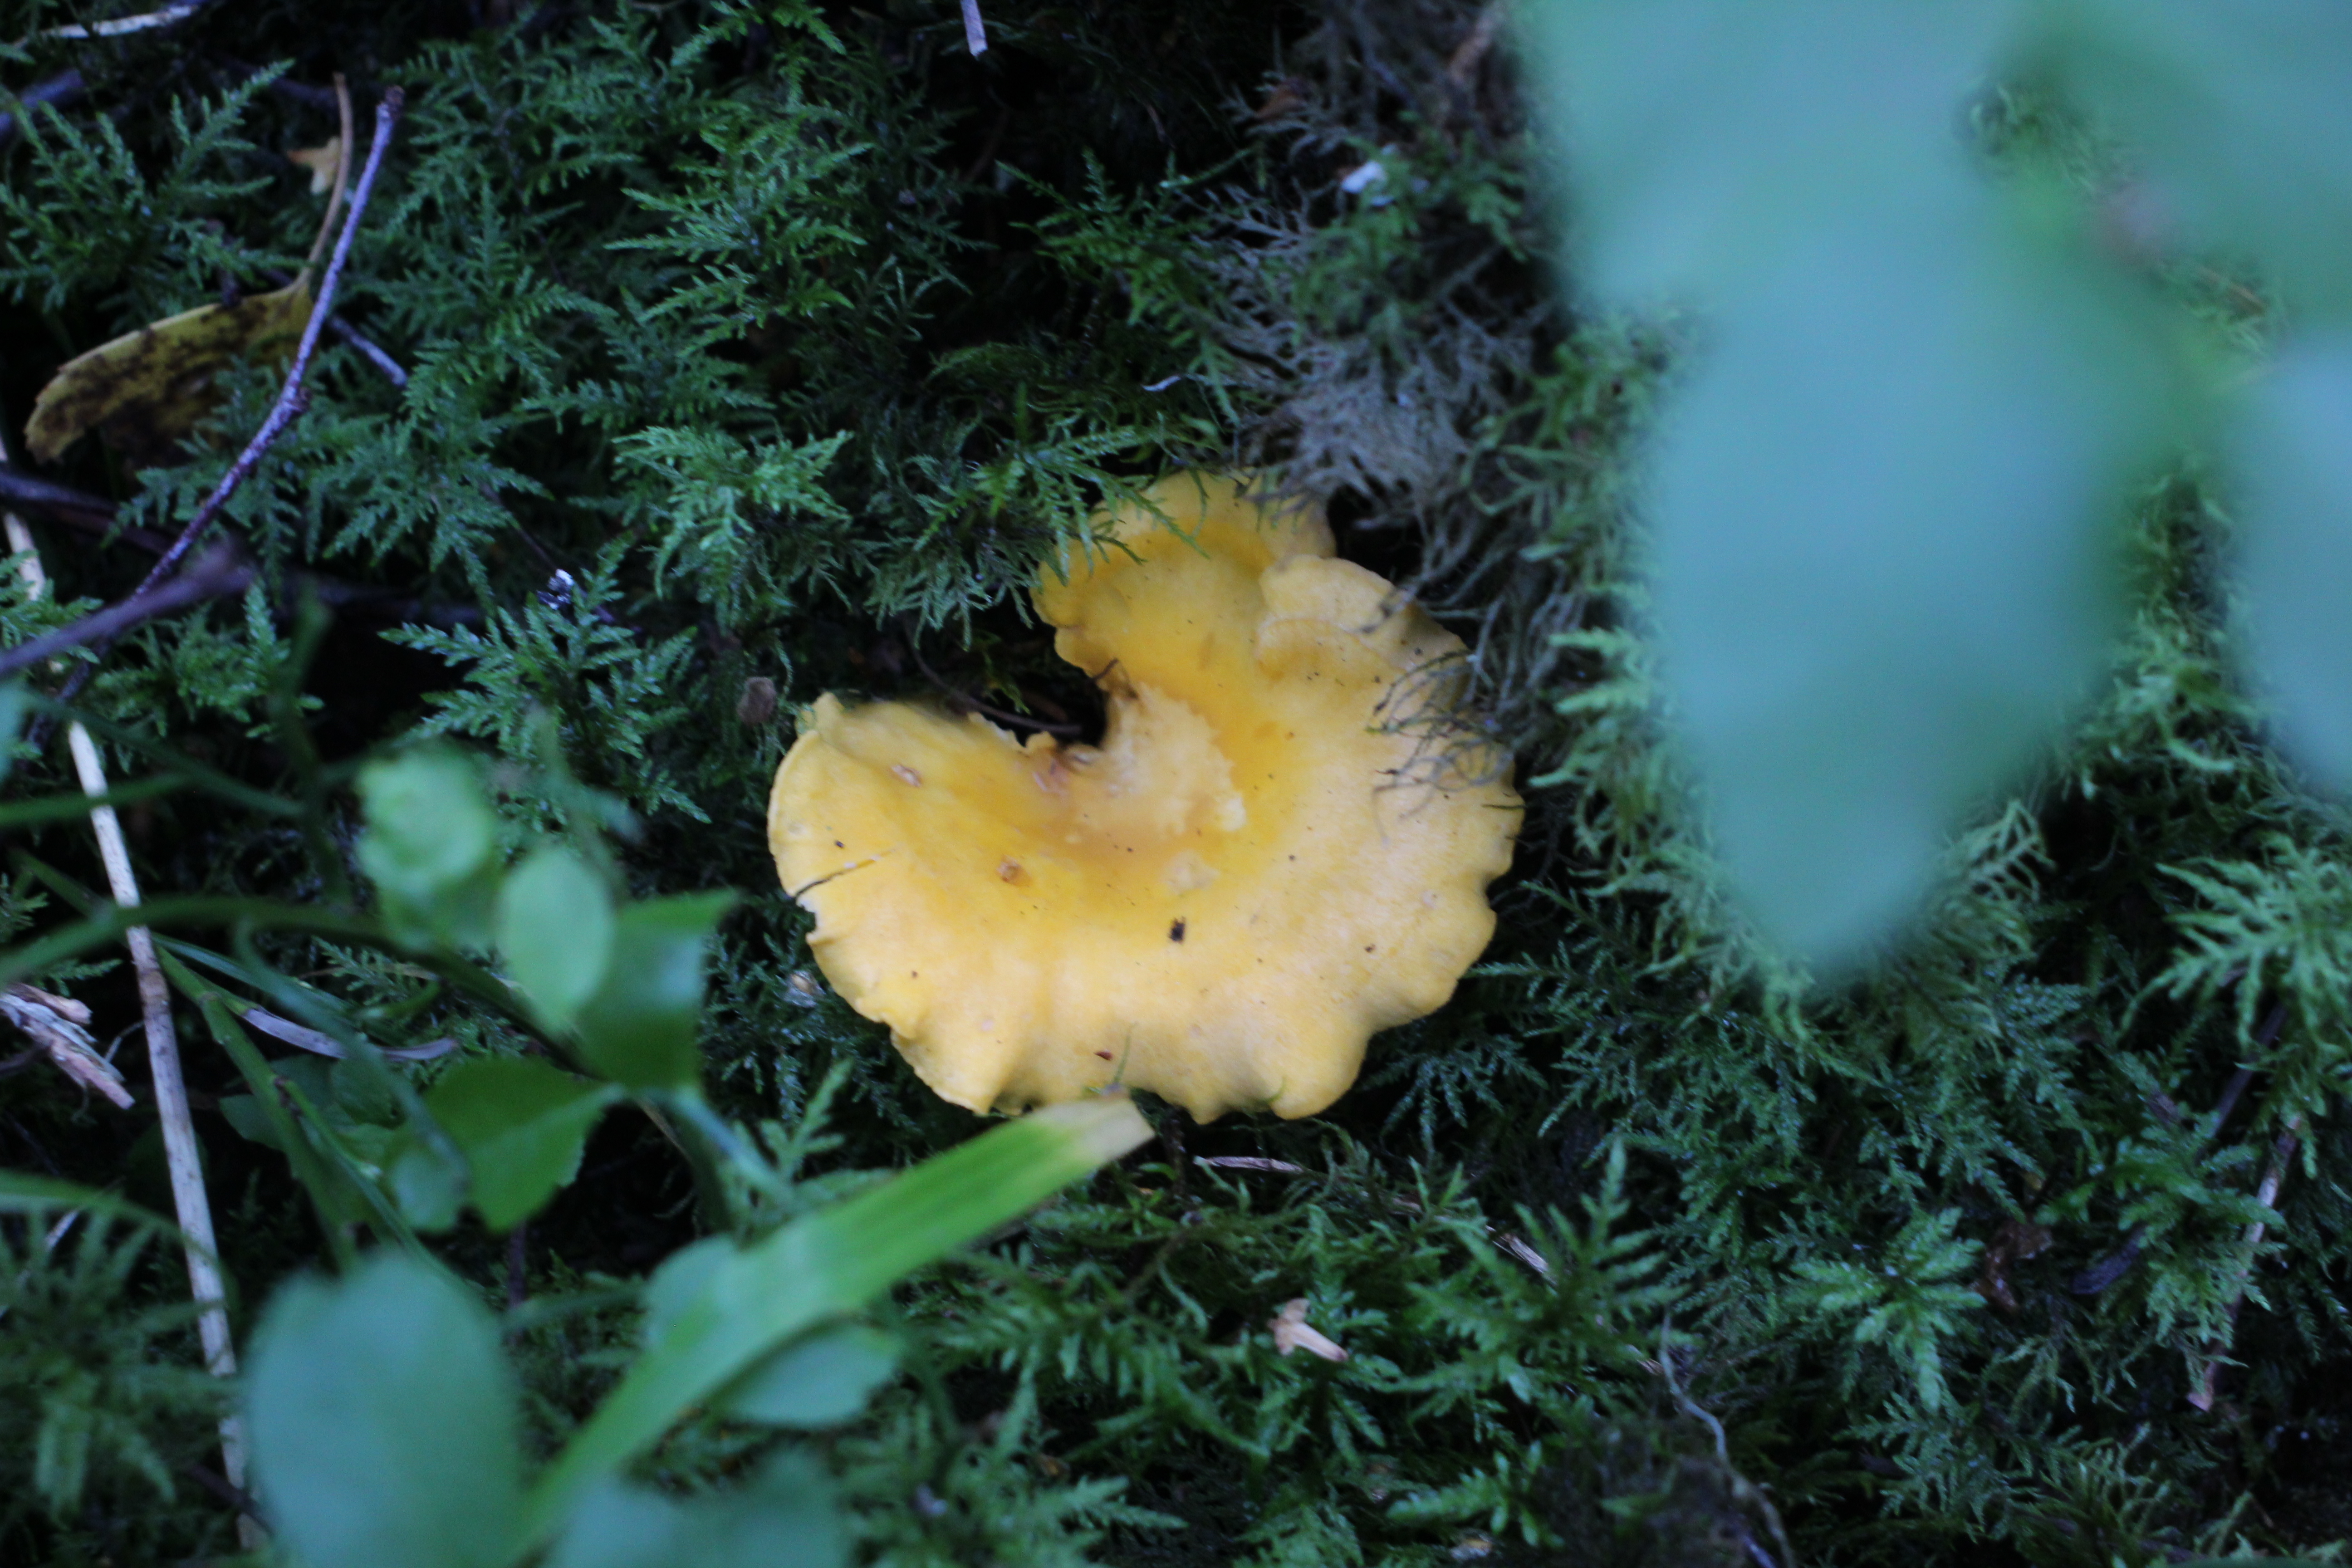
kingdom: Fungi
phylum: Basidiomycota
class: Agaricomycetes
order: Cantharellales
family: Hydnaceae
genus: Cantharellus
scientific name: Cantharellus cibarius
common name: Chanterelle
